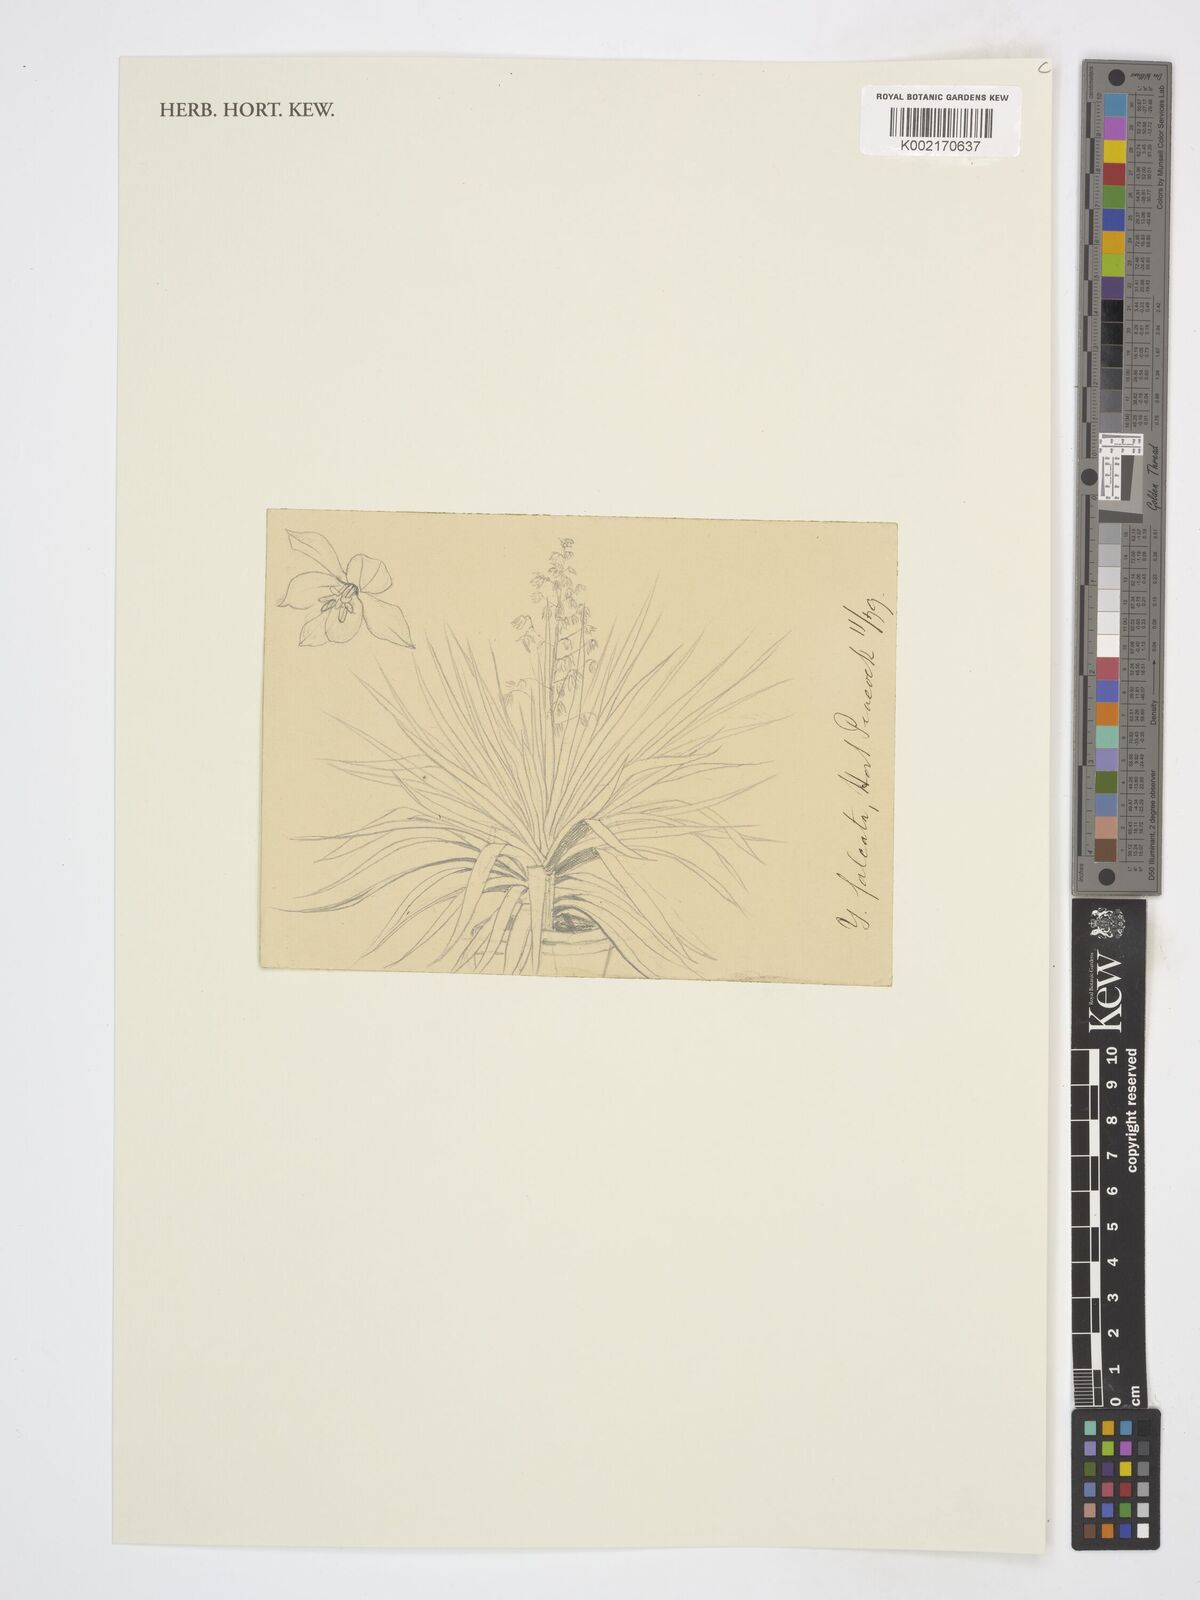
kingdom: Plantae
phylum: Tracheophyta
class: Liliopsida
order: Asparagales
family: Asparagaceae
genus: Yucca
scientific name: Yucca
